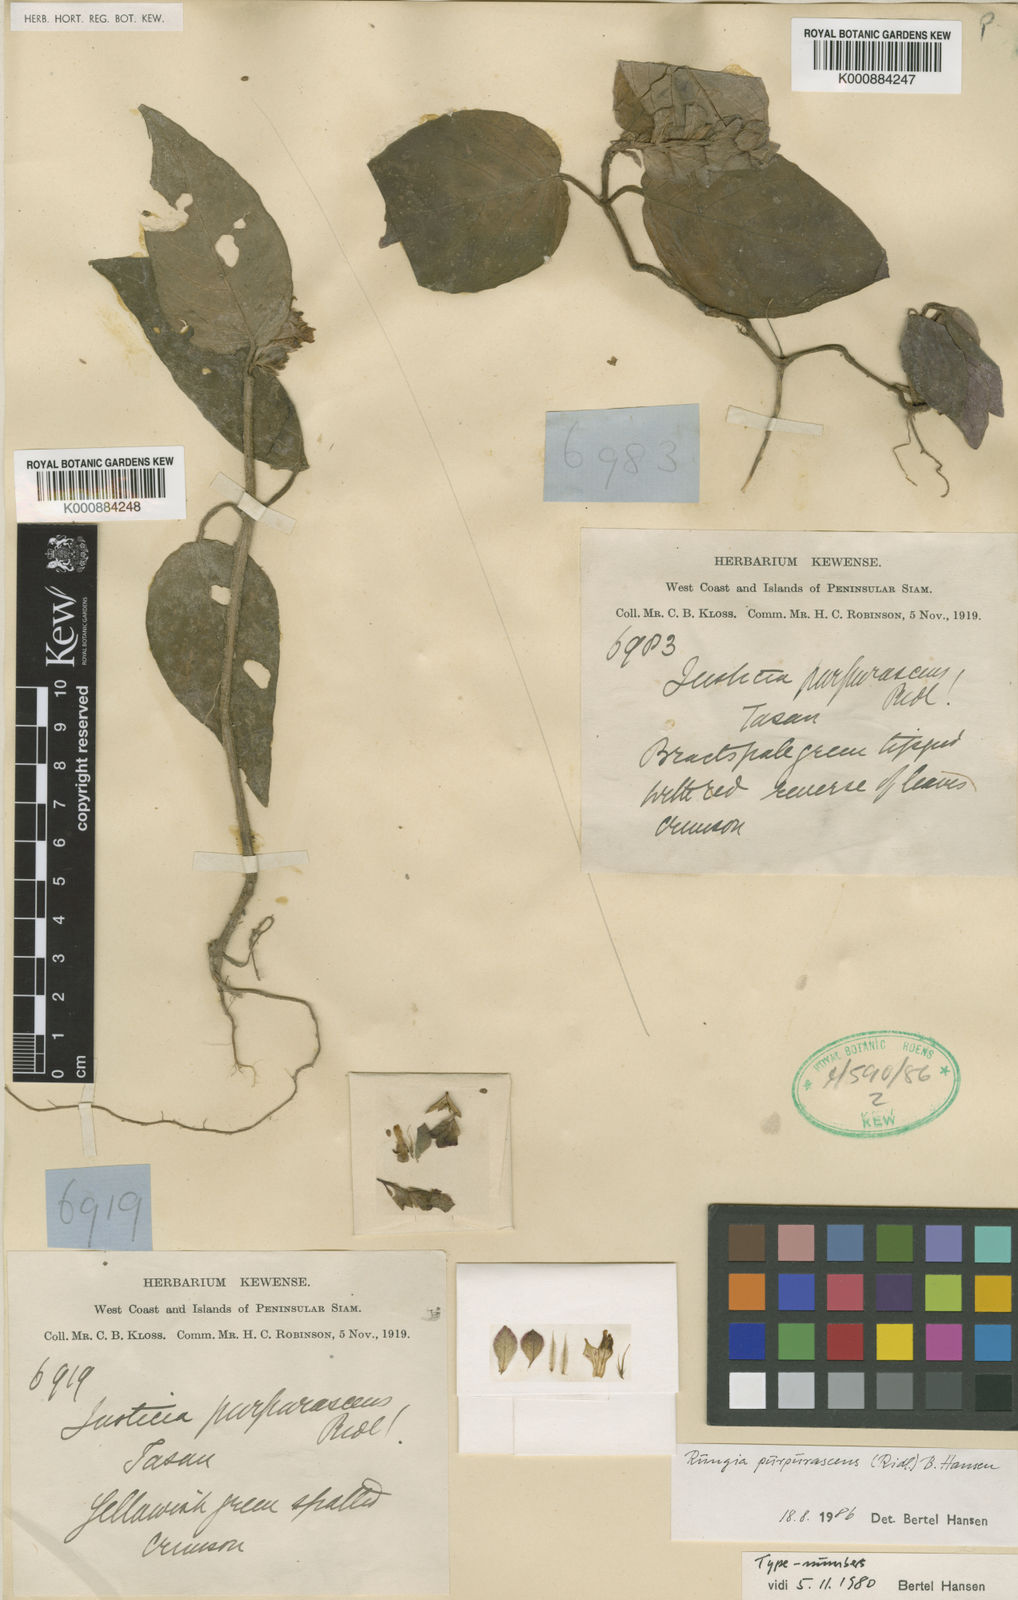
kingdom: Plantae
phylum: Tracheophyta
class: Magnoliopsida
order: Lamiales
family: Acanthaceae
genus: Rungia
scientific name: Rungia purpurascens
